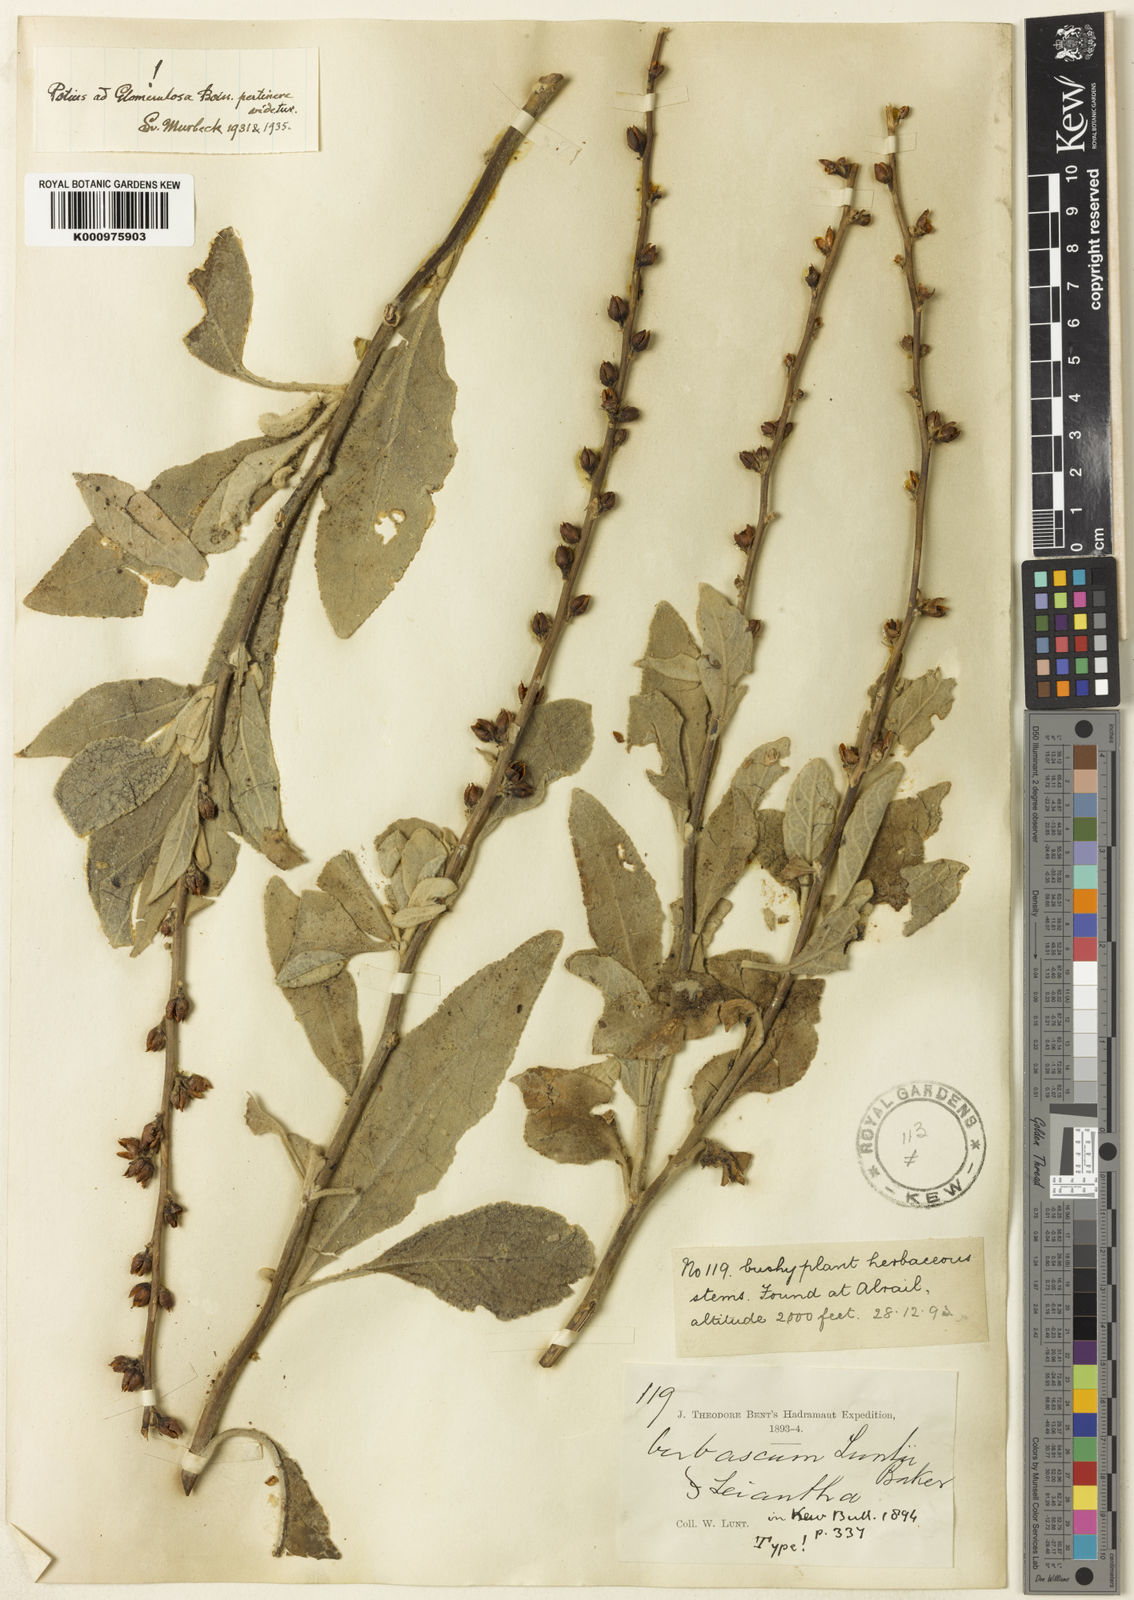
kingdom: Plantae
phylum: Tracheophyta
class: Magnoliopsida
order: Lamiales
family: Scrophulariaceae
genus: Verbascum
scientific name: Verbascum longibracteatum
